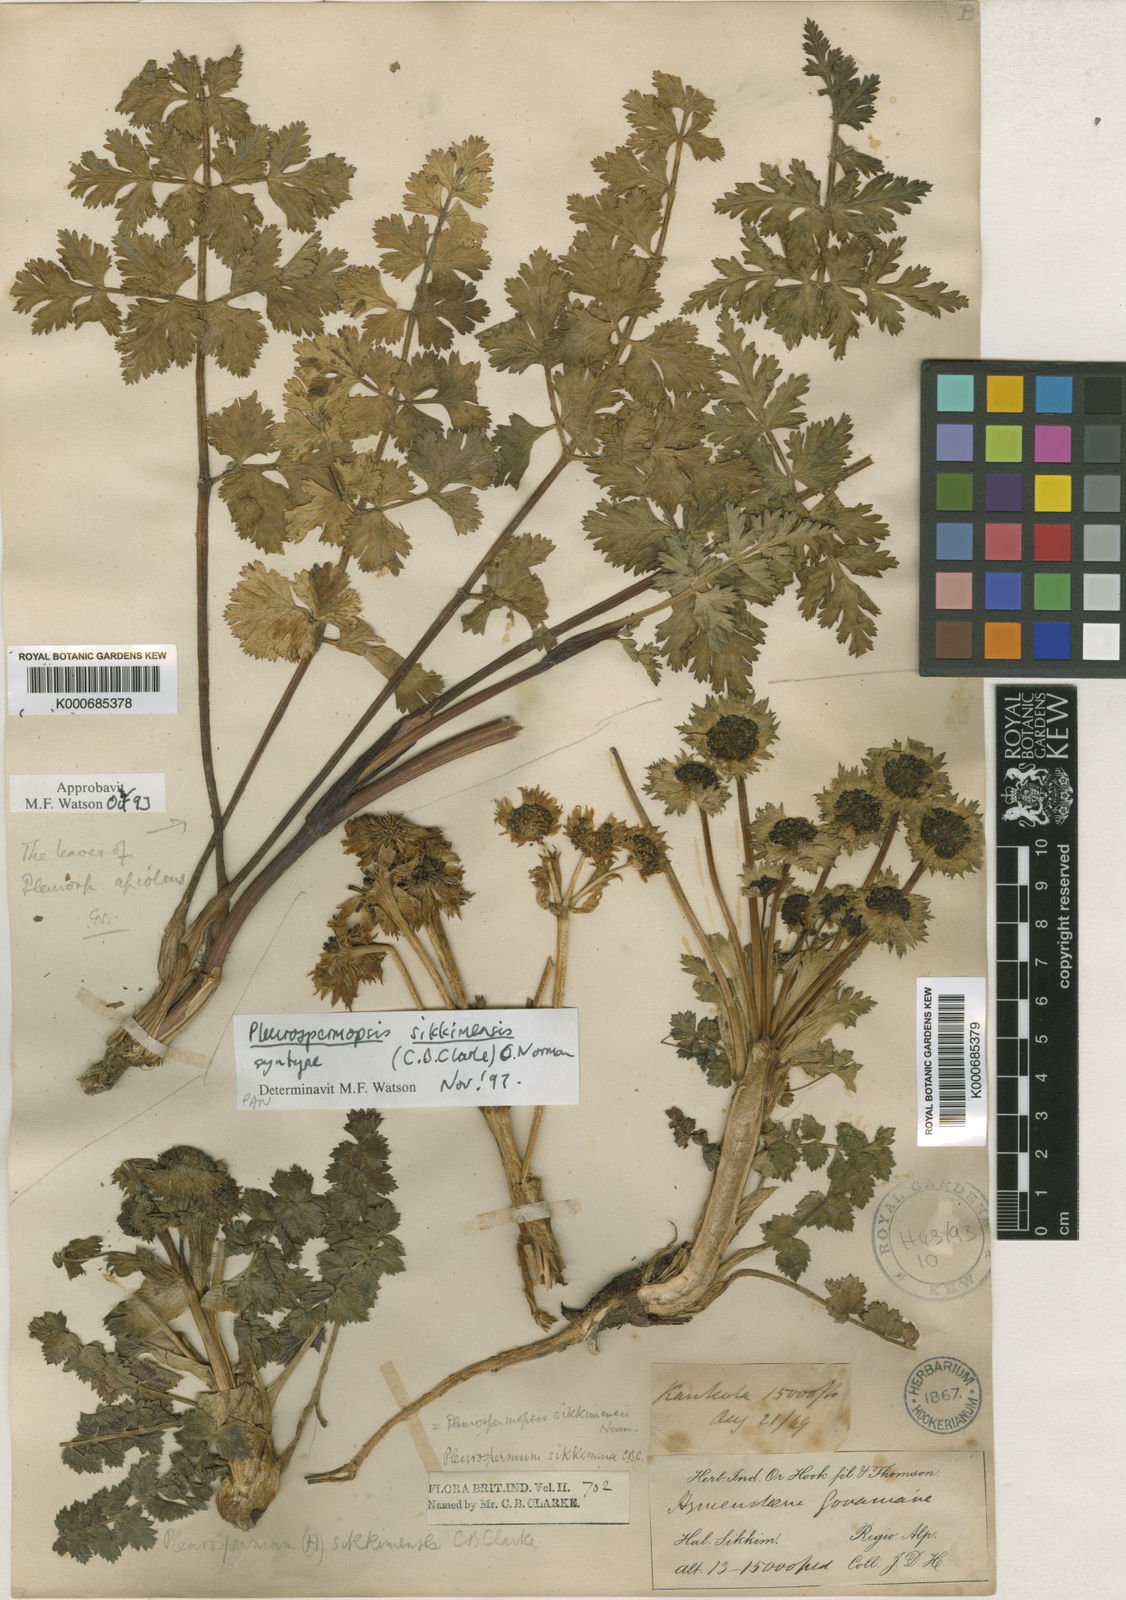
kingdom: Plantae
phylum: Tracheophyta
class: Magnoliopsida
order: Apiales
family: Apiaceae
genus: Pleurospermopsis
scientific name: Pleurospermopsis sikkimensis
